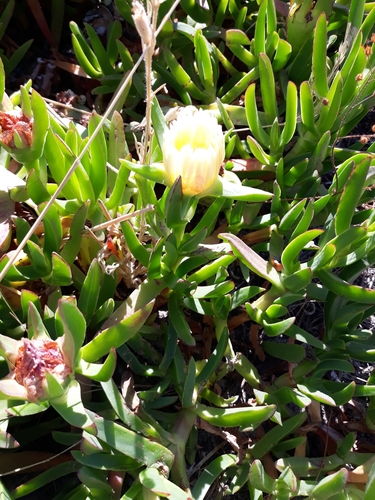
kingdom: Plantae
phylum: Tracheophyta
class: Magnoliopsida
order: Caryophyllales
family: Aizoaceae
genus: Carpobrotus
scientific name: Carpobrotus edulis
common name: Hottentot-fig
